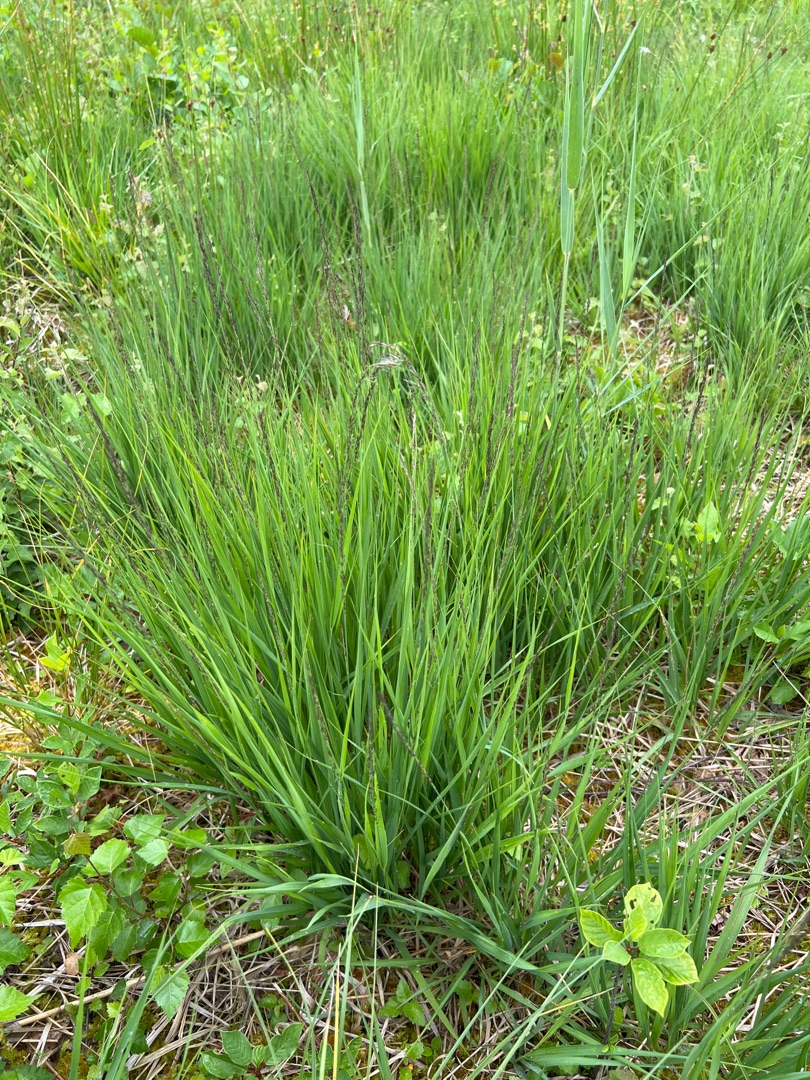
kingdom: Plantae
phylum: Tracheophyta
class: Liliopsida
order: Poales
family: Poaceae
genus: Molinia
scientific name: Molinia caerulea
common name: Blåtop
